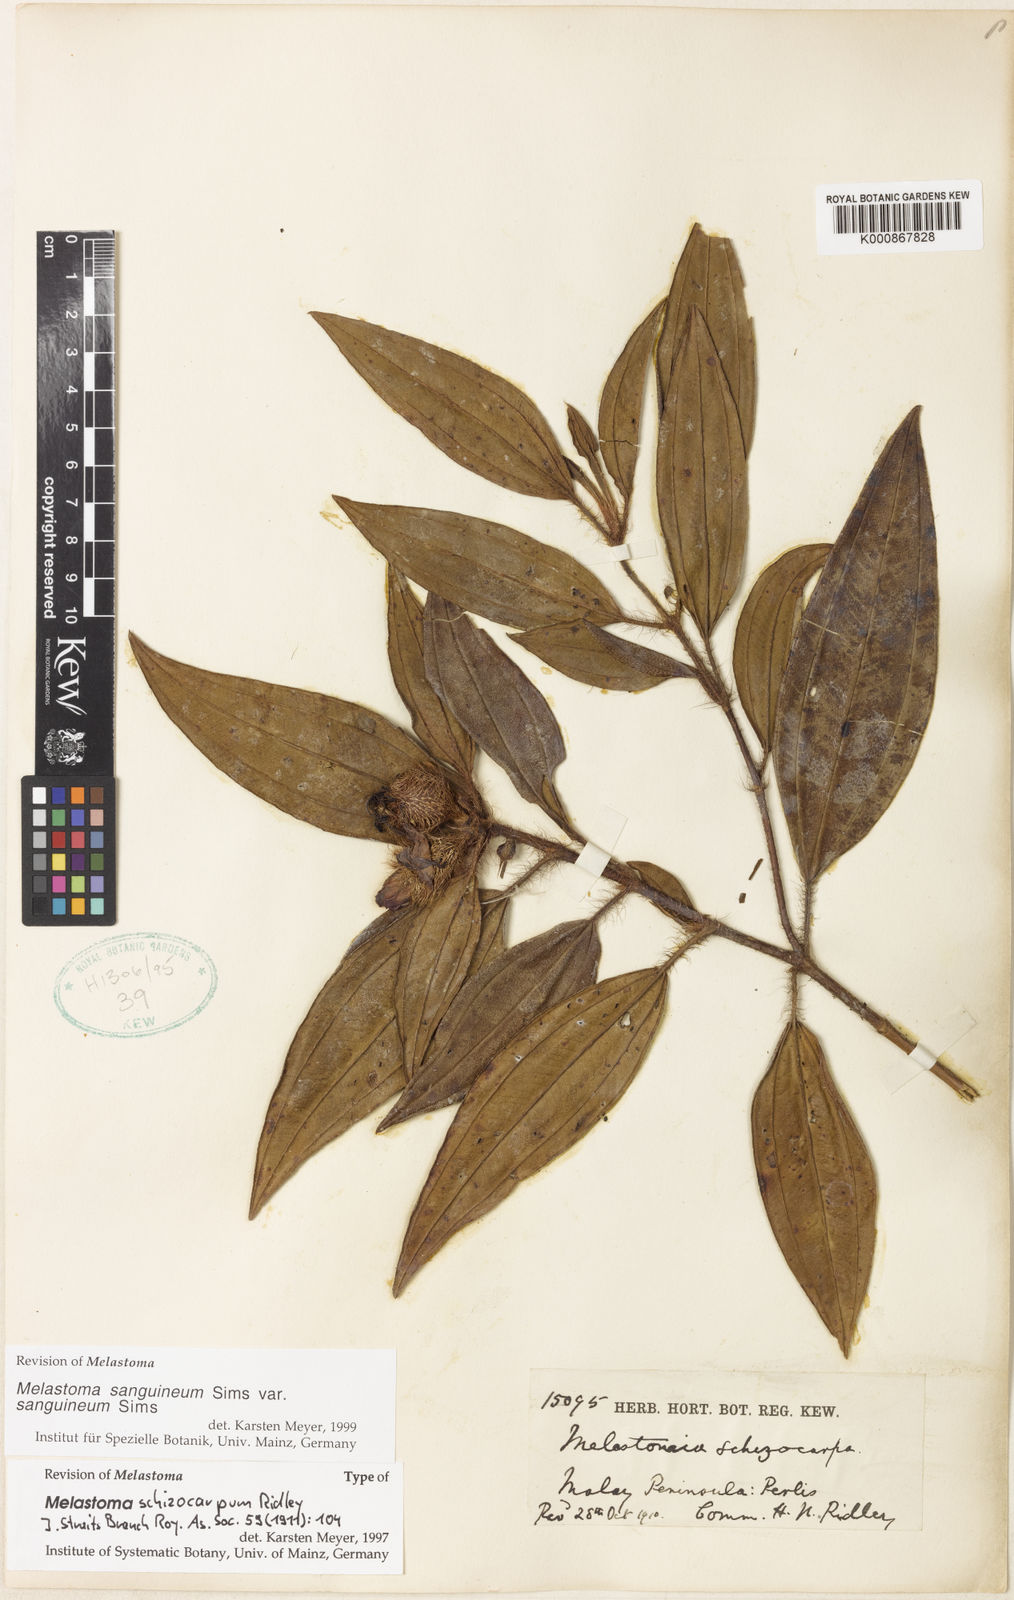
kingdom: Plantae
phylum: Tracheophyta
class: Magnoliopsida
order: Myrtales
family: Melastomataceae
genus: Melastoma
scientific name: Melastoma sanguineum
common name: Red melastome
